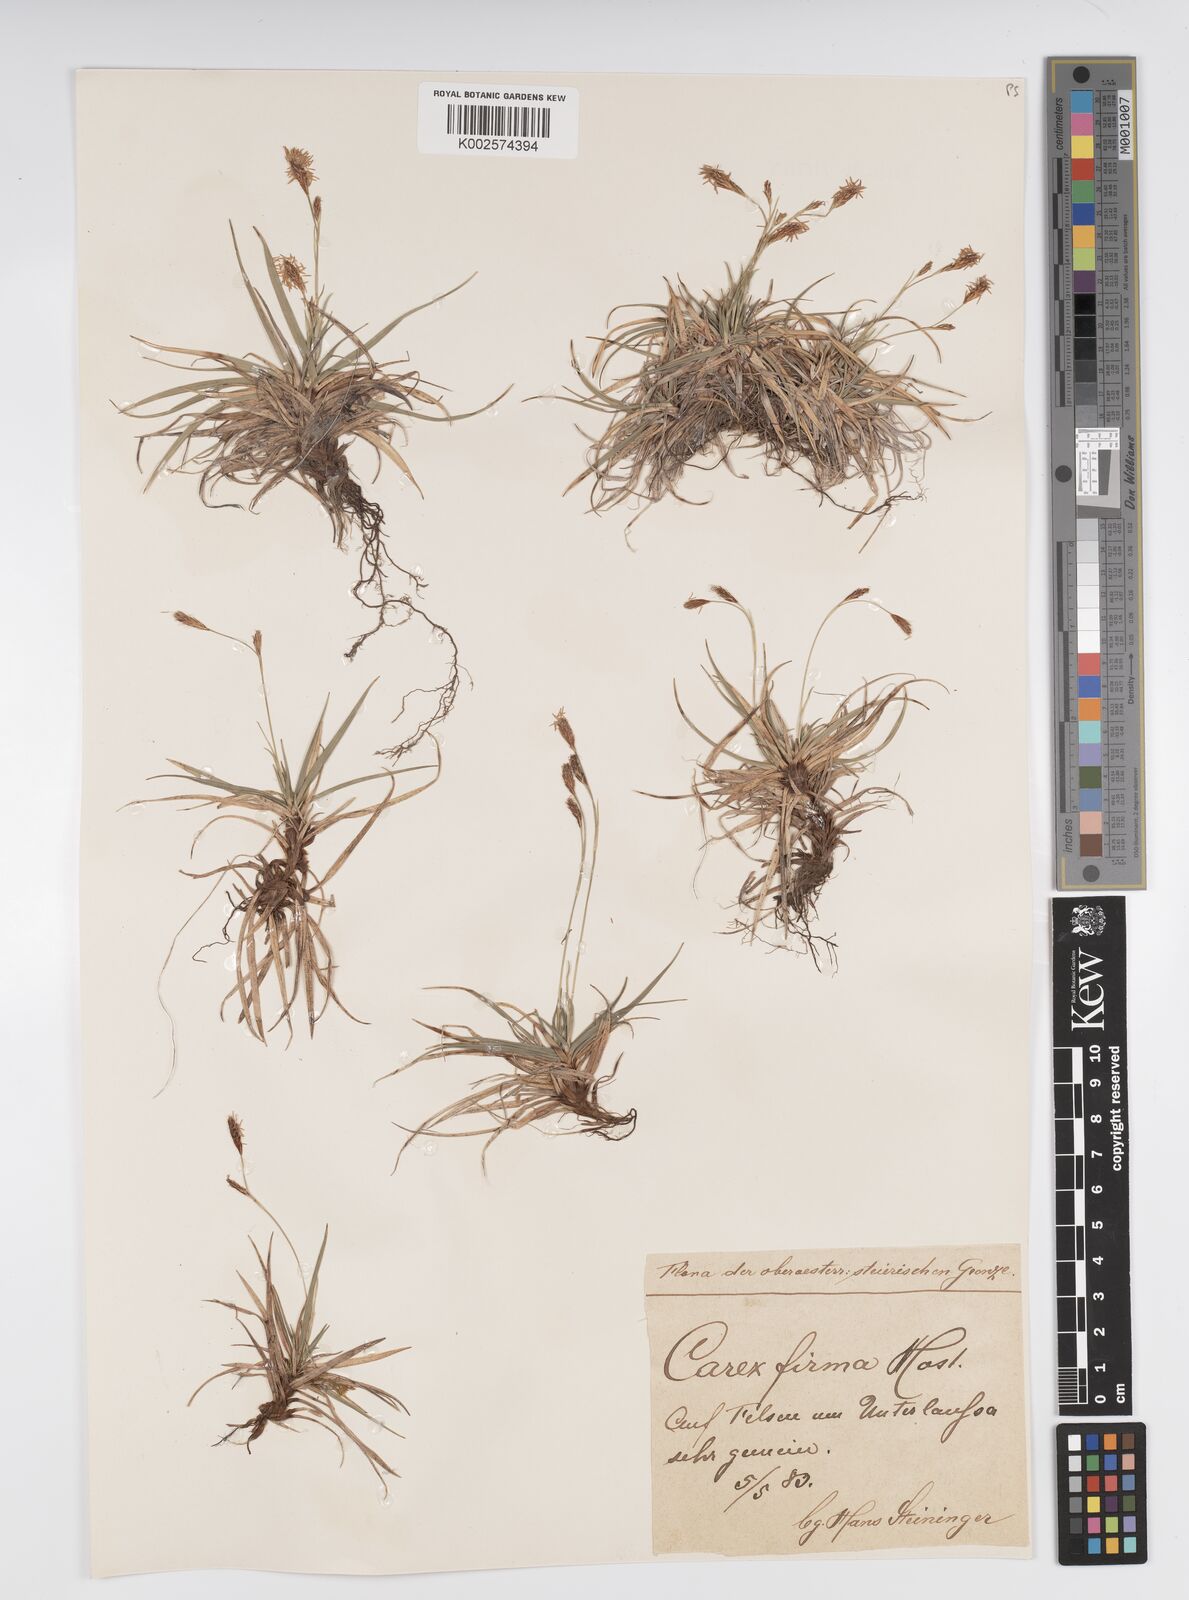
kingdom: Plantae
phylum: Tracheophyta
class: Liliopsida
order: Poales
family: Cyperaceae
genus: Carex
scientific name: Carex firma
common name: Dwarf pillow sedge
